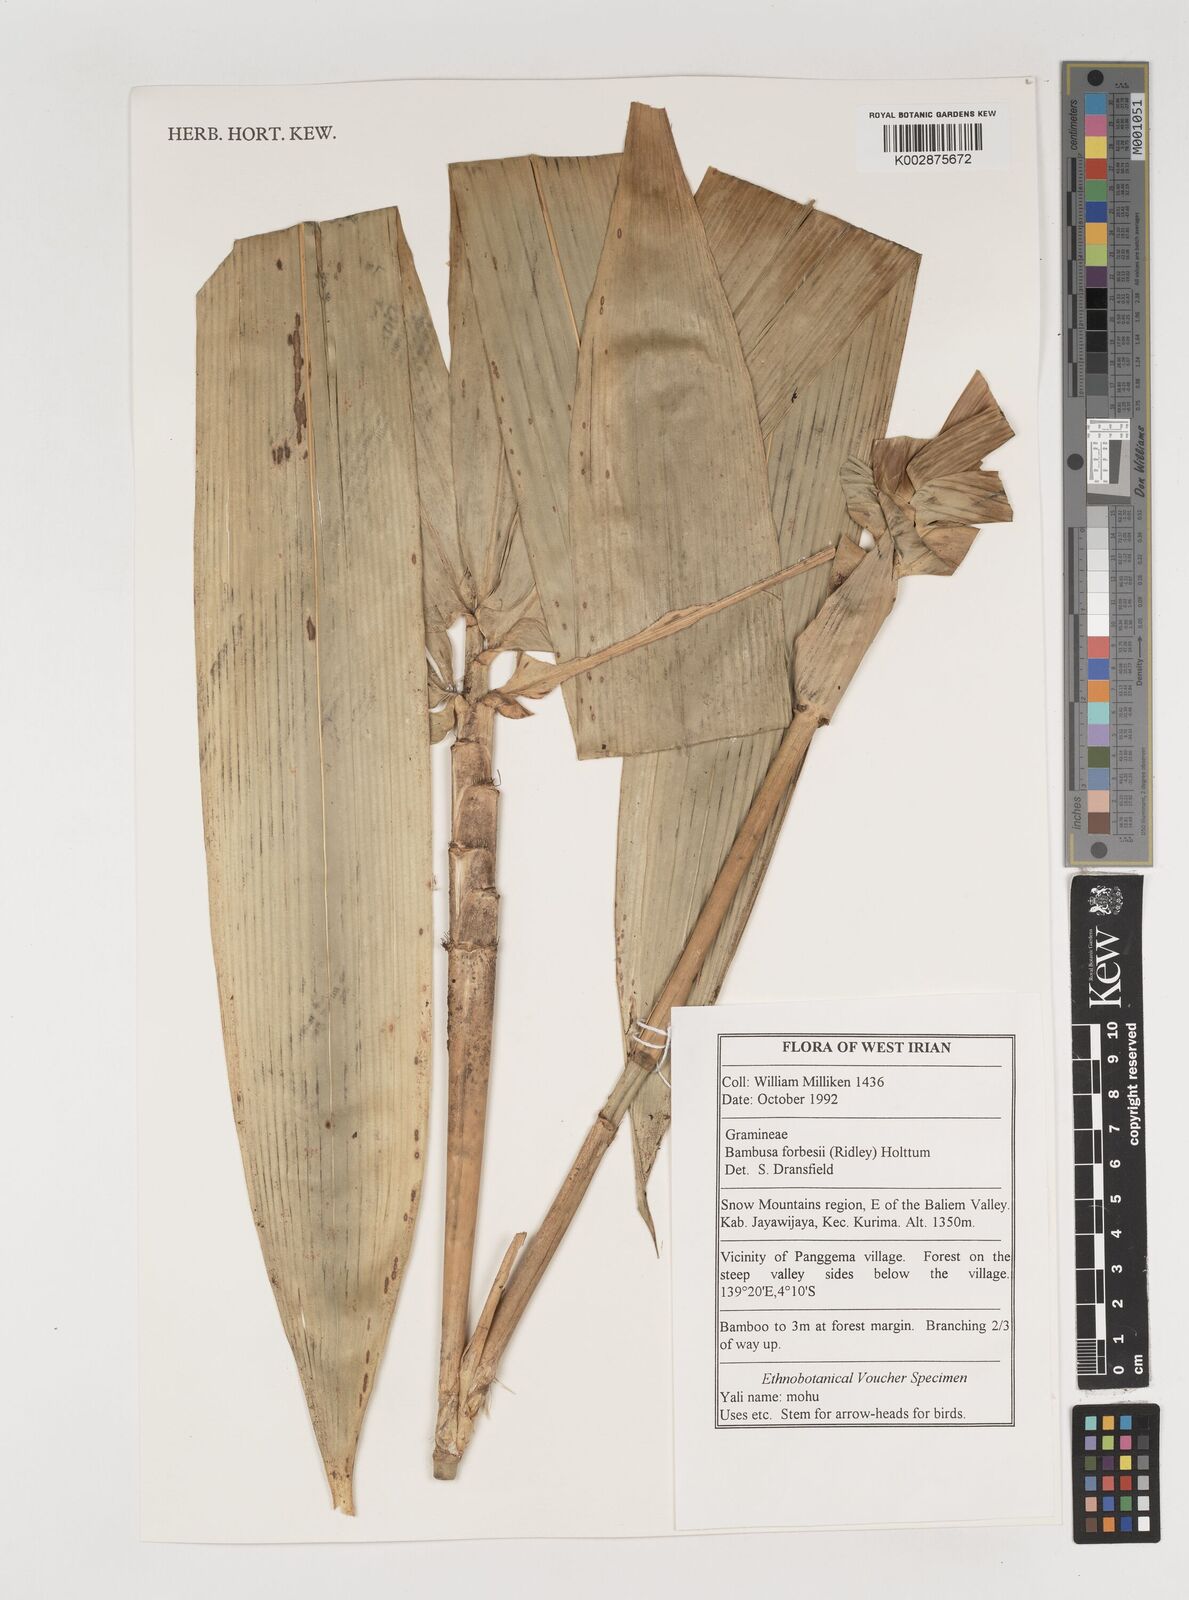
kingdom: Plantae
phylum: Tracheophyta
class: Liliopsida
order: Poales
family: Poaceae
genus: Neololeba
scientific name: Neololeba atra
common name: Cape bamboo
